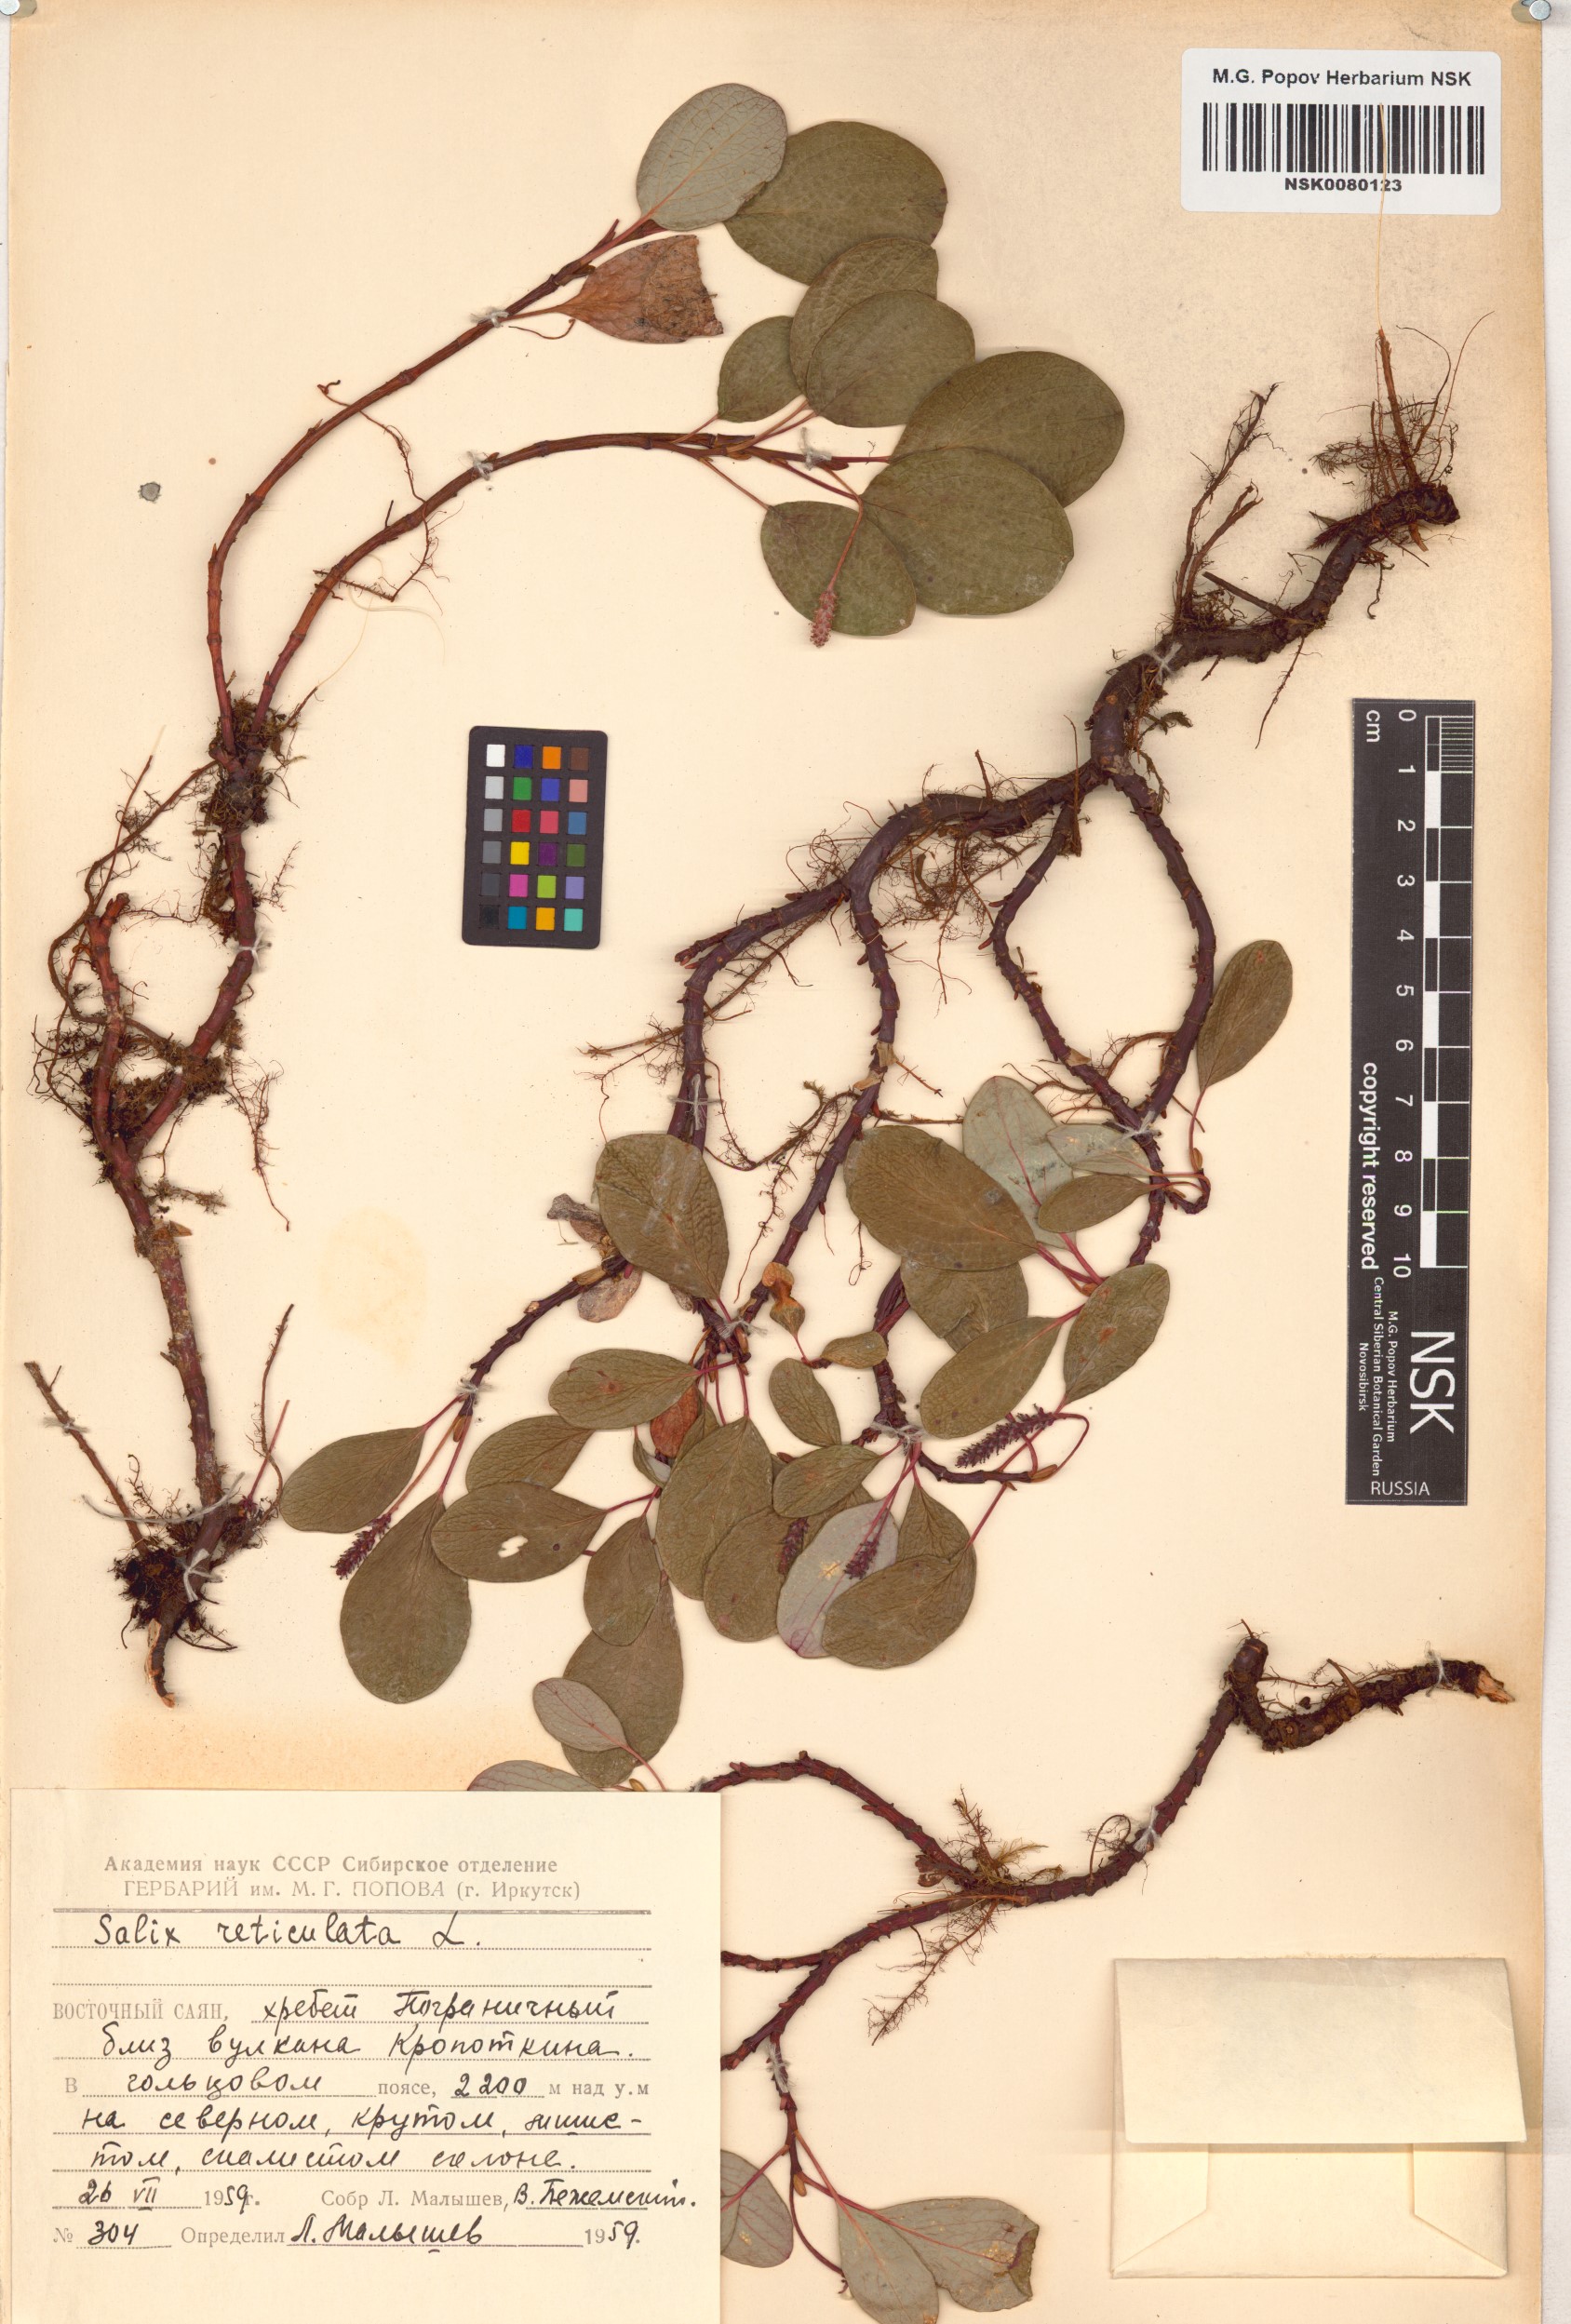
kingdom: Plantae
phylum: Tracheophyta
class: Magnoliopsida
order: Malpighiales
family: Salicaceae
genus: Salix
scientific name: Salix reticulata
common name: Net-leaved willow
